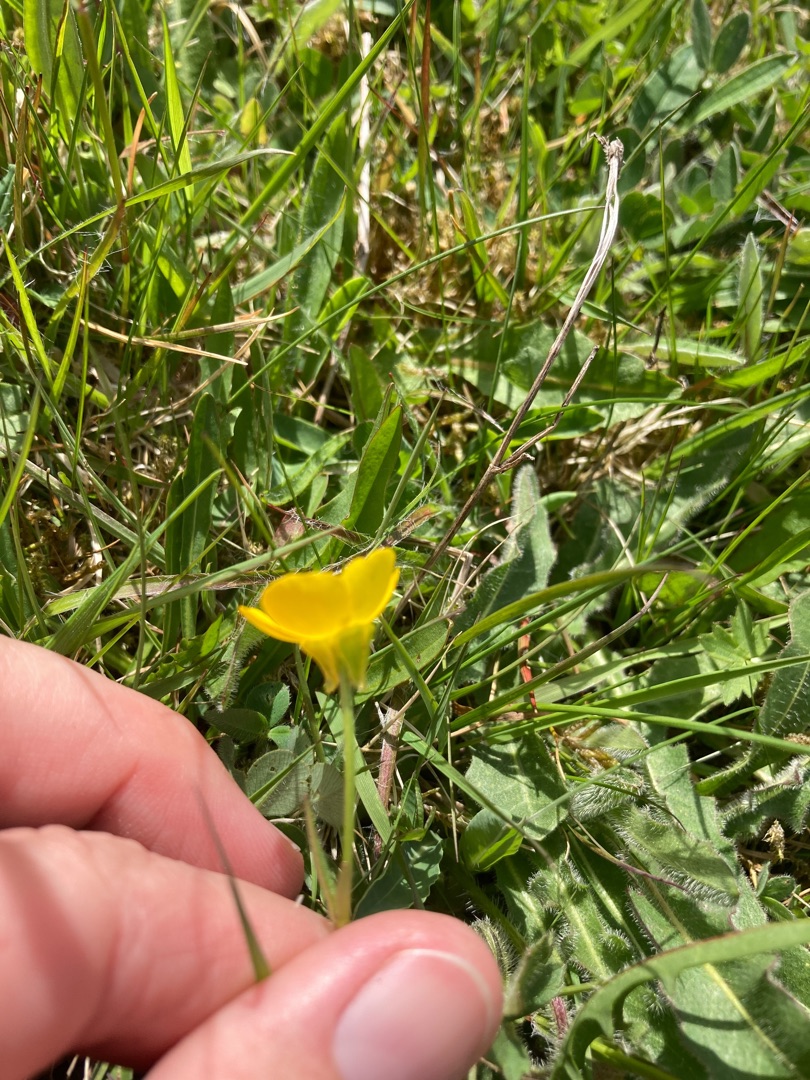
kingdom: Plantae
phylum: Tracheophyta
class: Magnoliopsida
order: Ranunculales
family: Ranunculaceae
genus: Ranunculus
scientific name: Ranunculus bulbosus
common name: Knold-ranunkel
